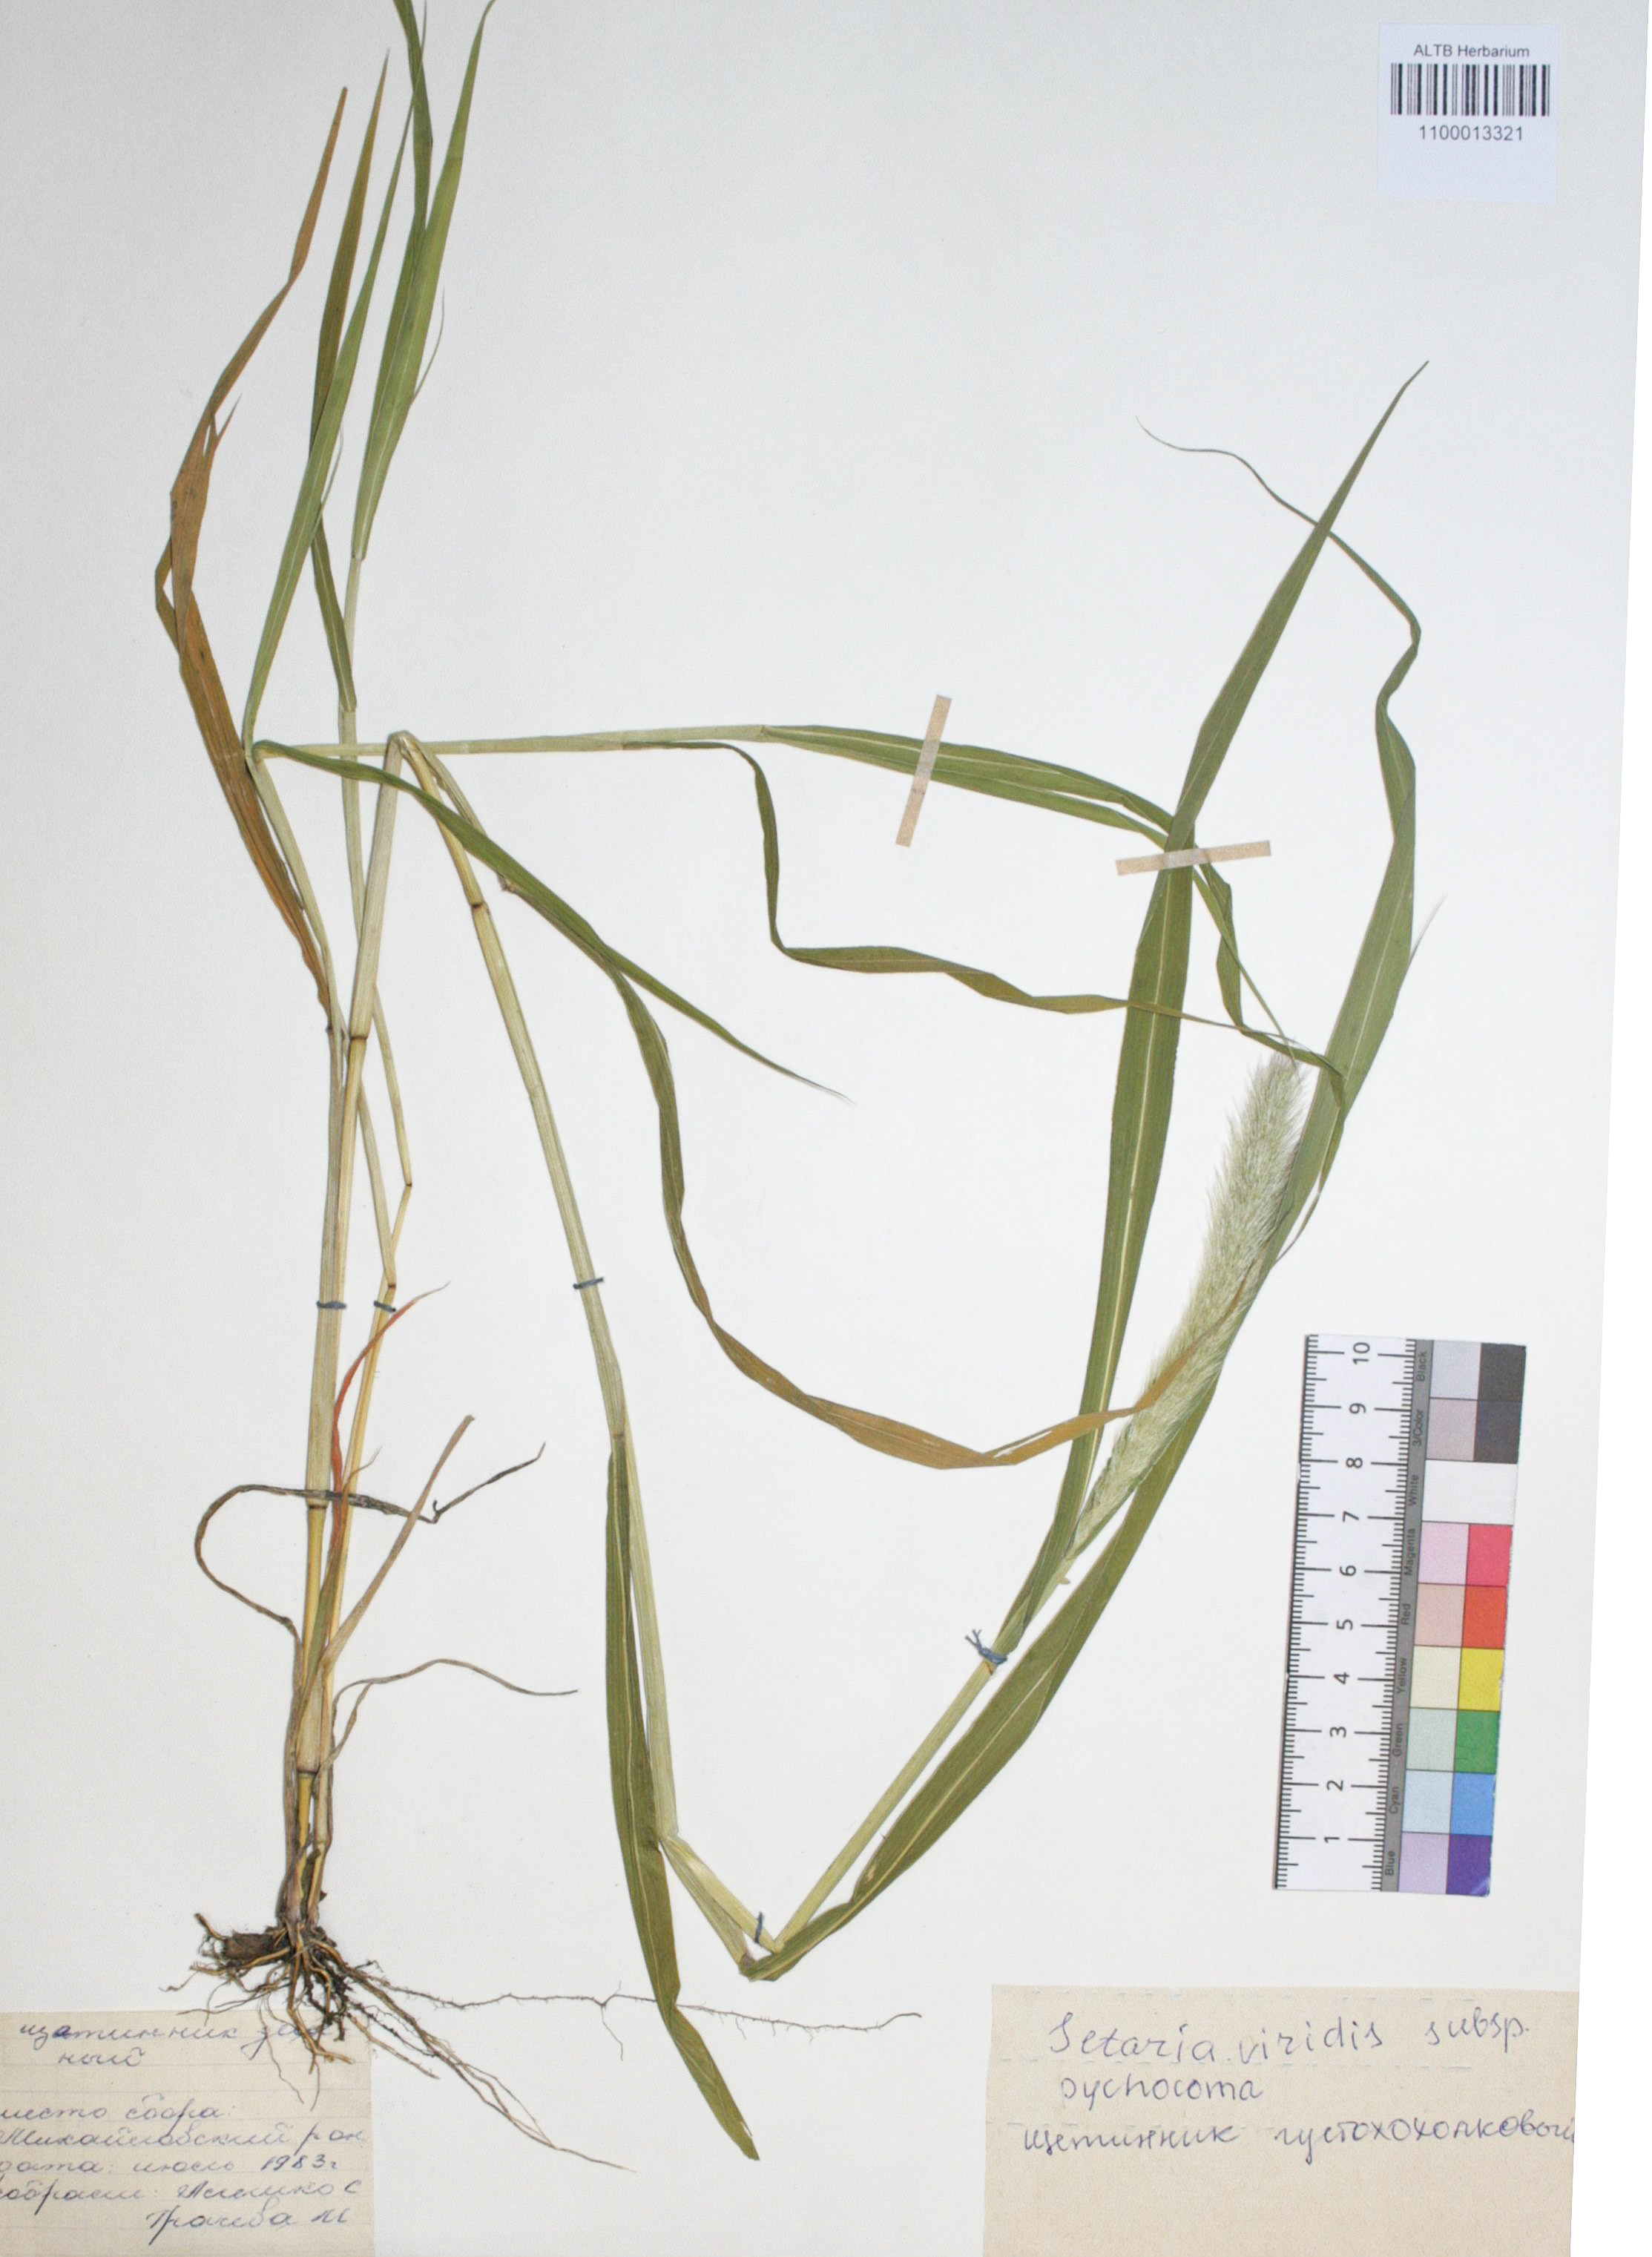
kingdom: Plantae
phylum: Tracheophyta
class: Liliopsida
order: Poales
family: Poaceae
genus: Setaria
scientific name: Setaria viridis
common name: Green bristlegrass
